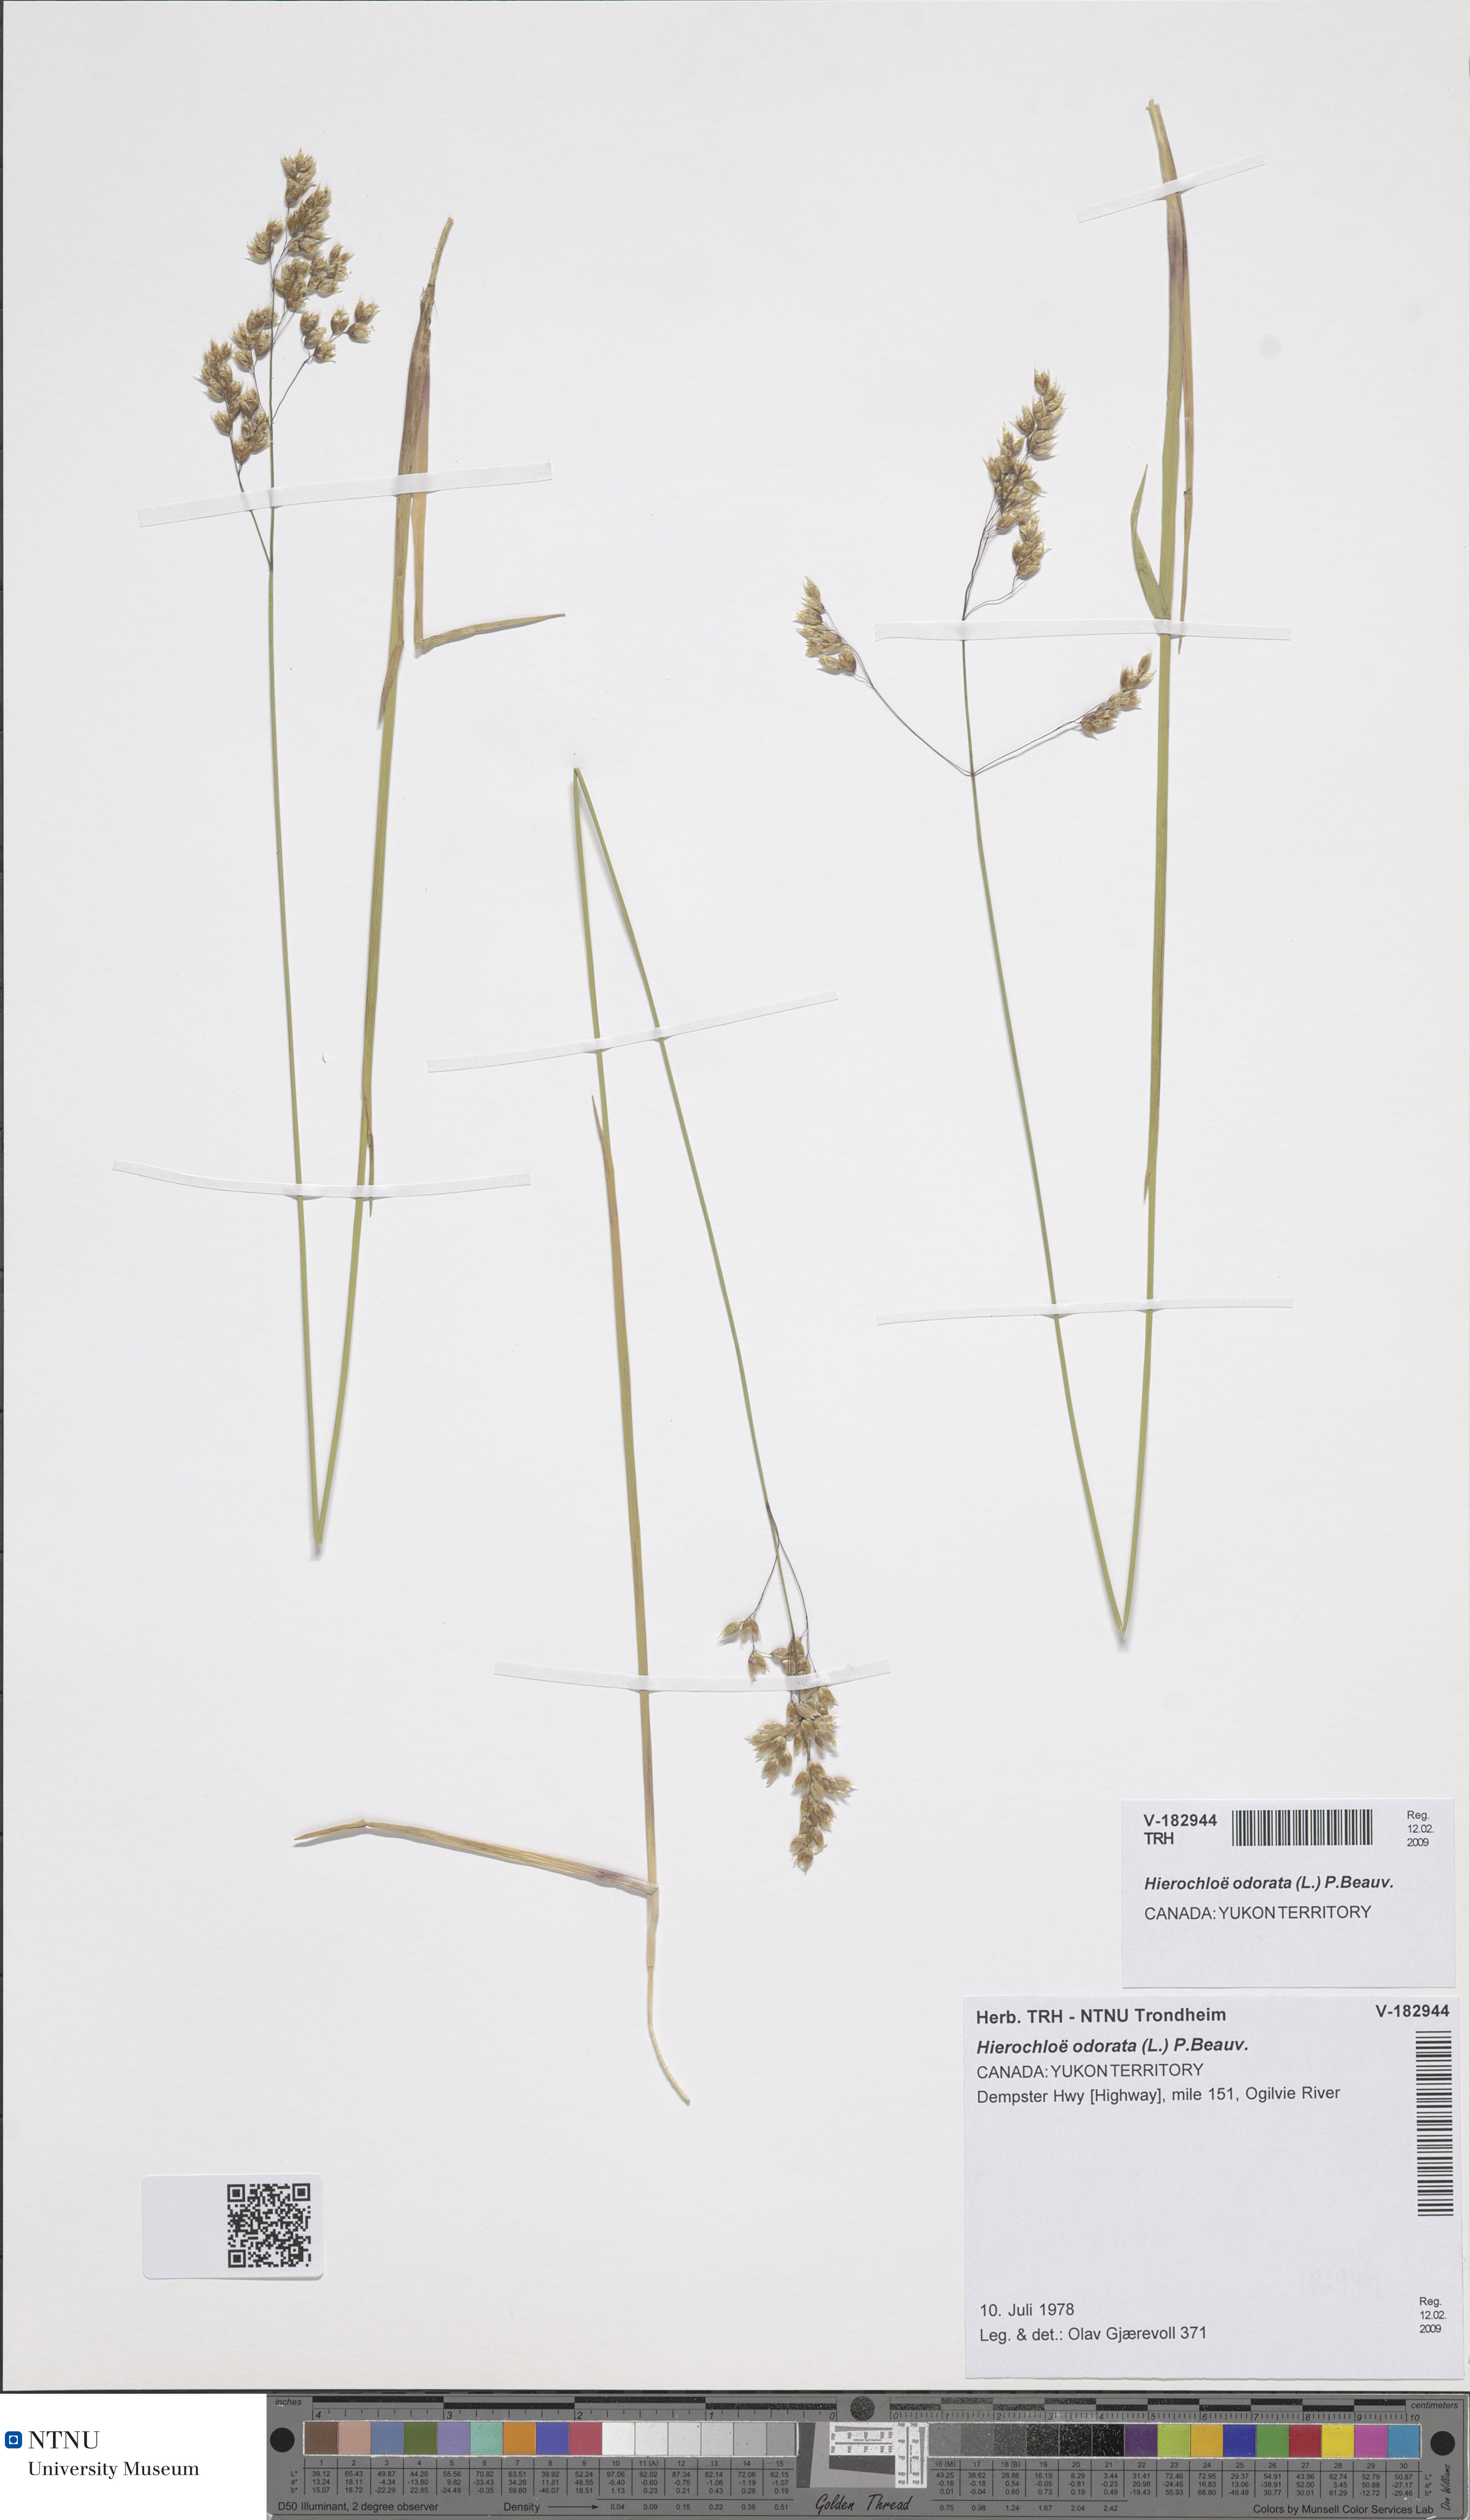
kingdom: Plantae
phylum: Tracheophyta
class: Liliopsida
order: Poales
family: Poaceae
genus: Anthoxanthum
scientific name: Anthoxanthum nitens
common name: Holy grass
